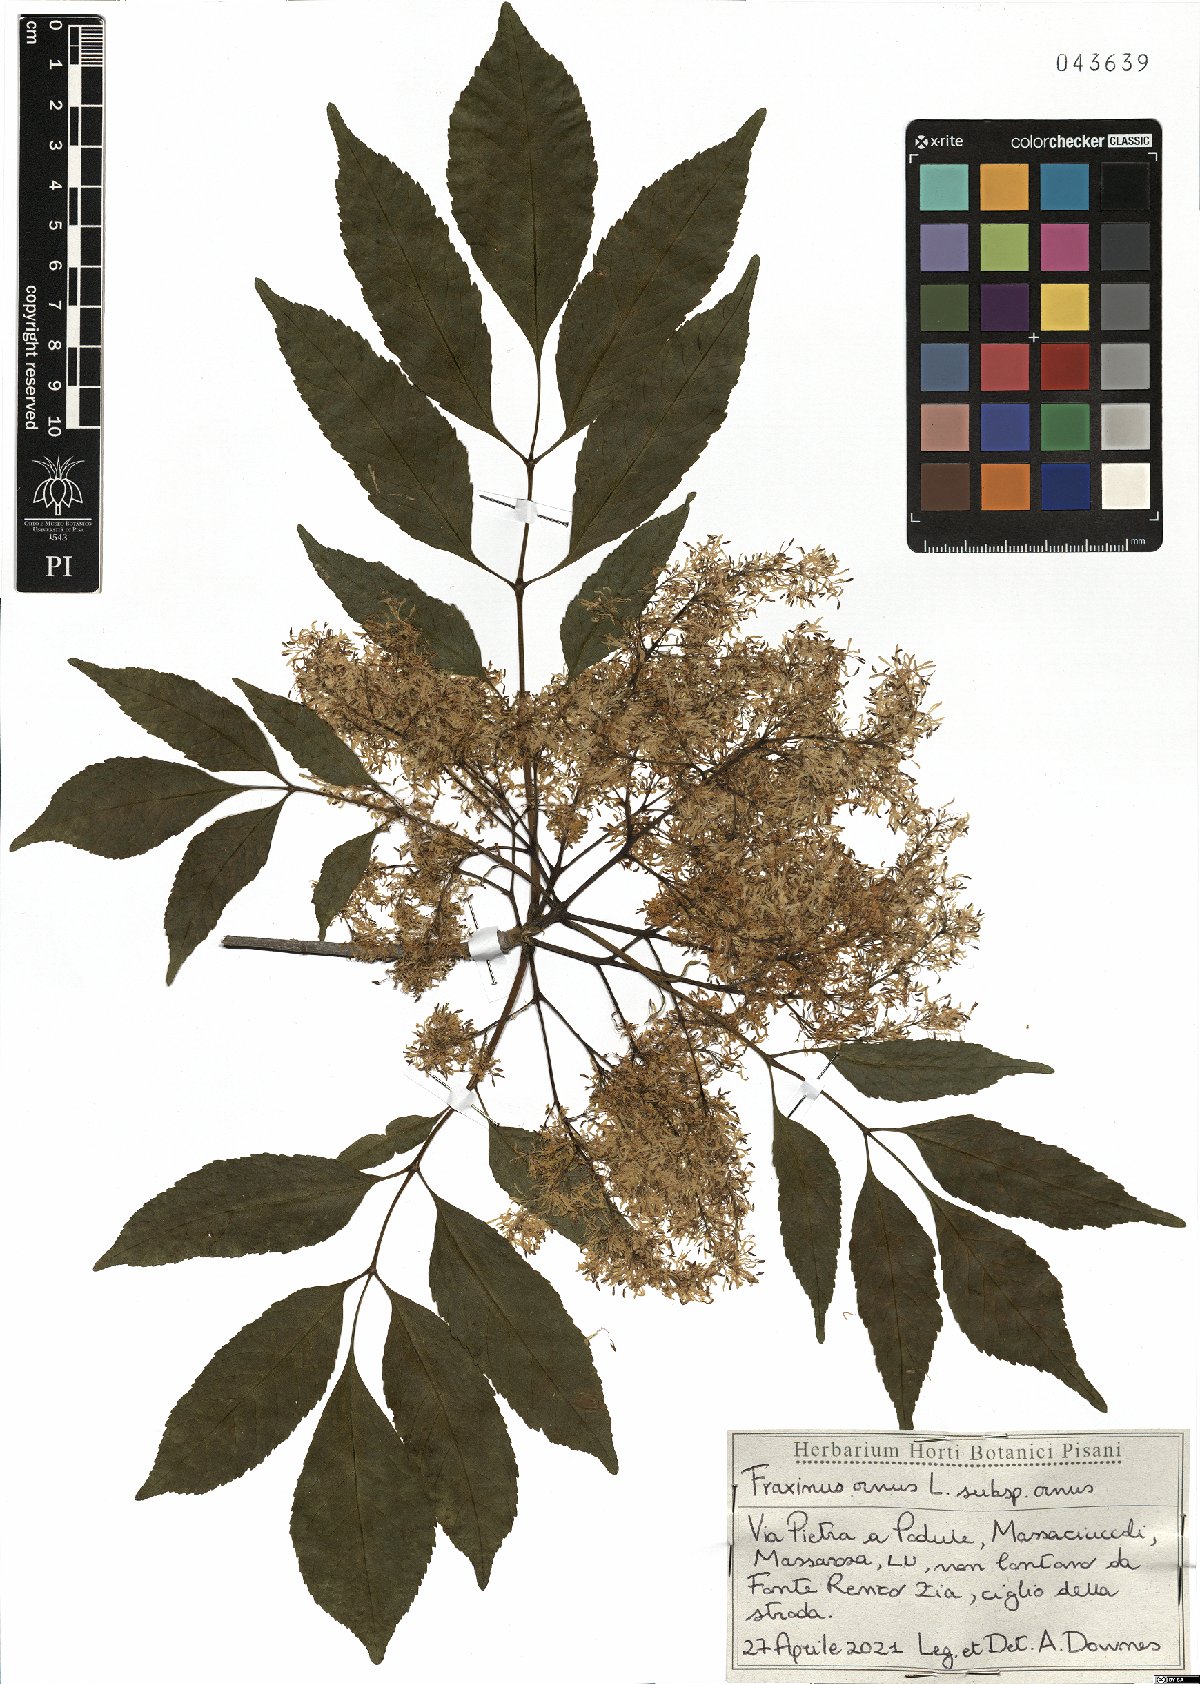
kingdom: Plantae
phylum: Tracheophyta
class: Magnoliopsida
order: Lamiales
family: Oleaceae
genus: Fraxinus
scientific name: Fraxinus ornus
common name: Manna ash
